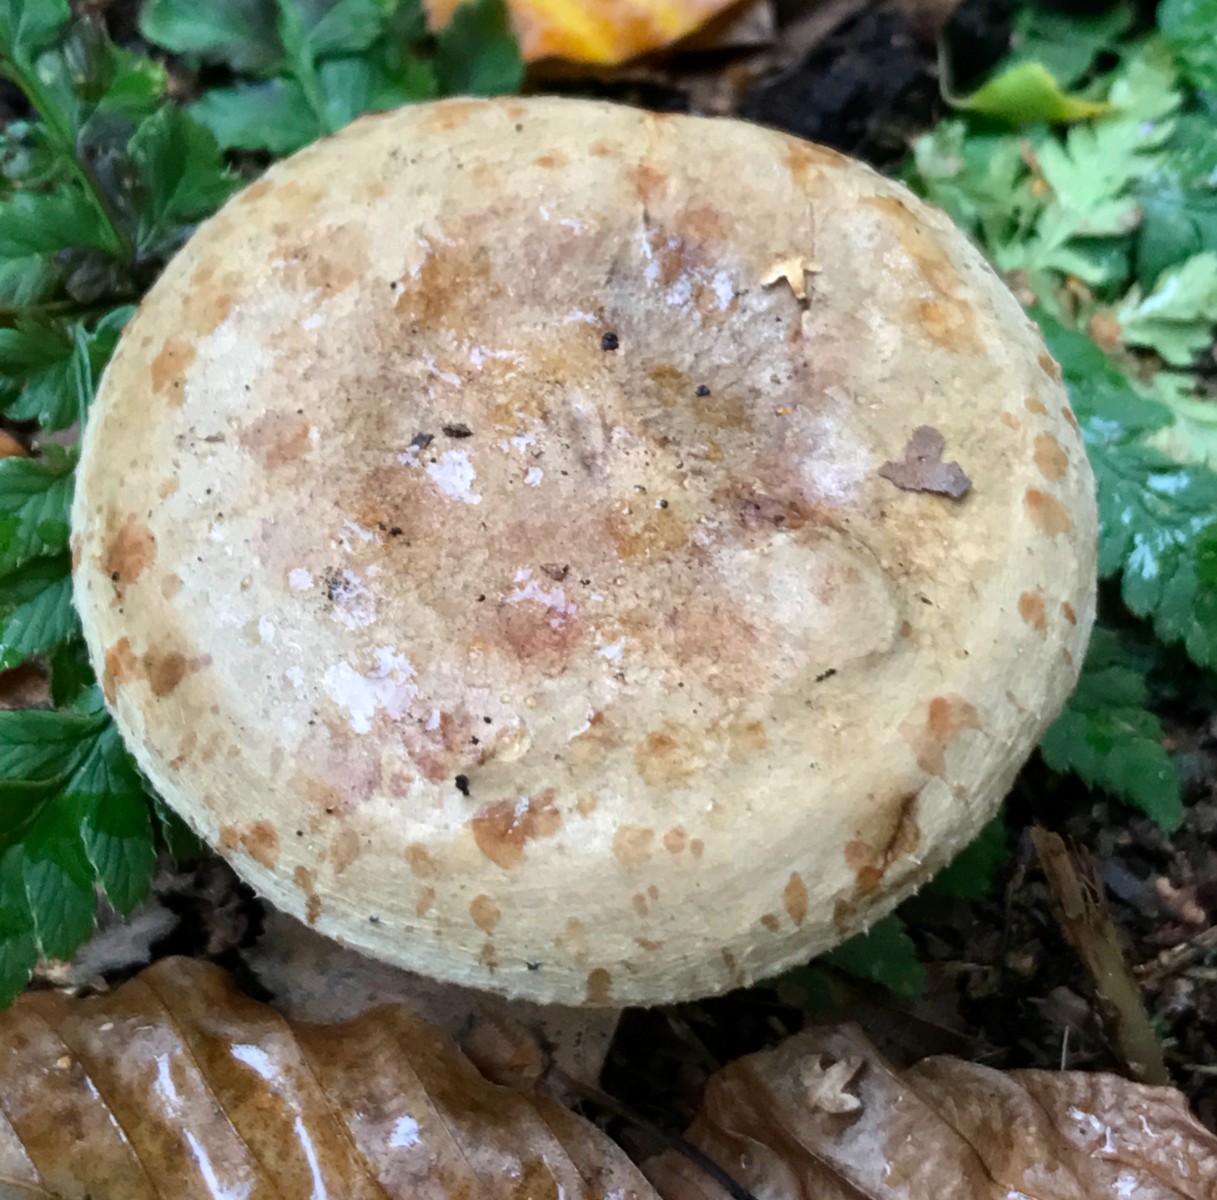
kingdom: Fungi
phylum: Basidiomycota
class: Agaricomycetes
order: Russulales
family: Russulaceae
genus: Lactarius
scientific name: Lactarius blennius
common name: dråbeplettet mælkehat
